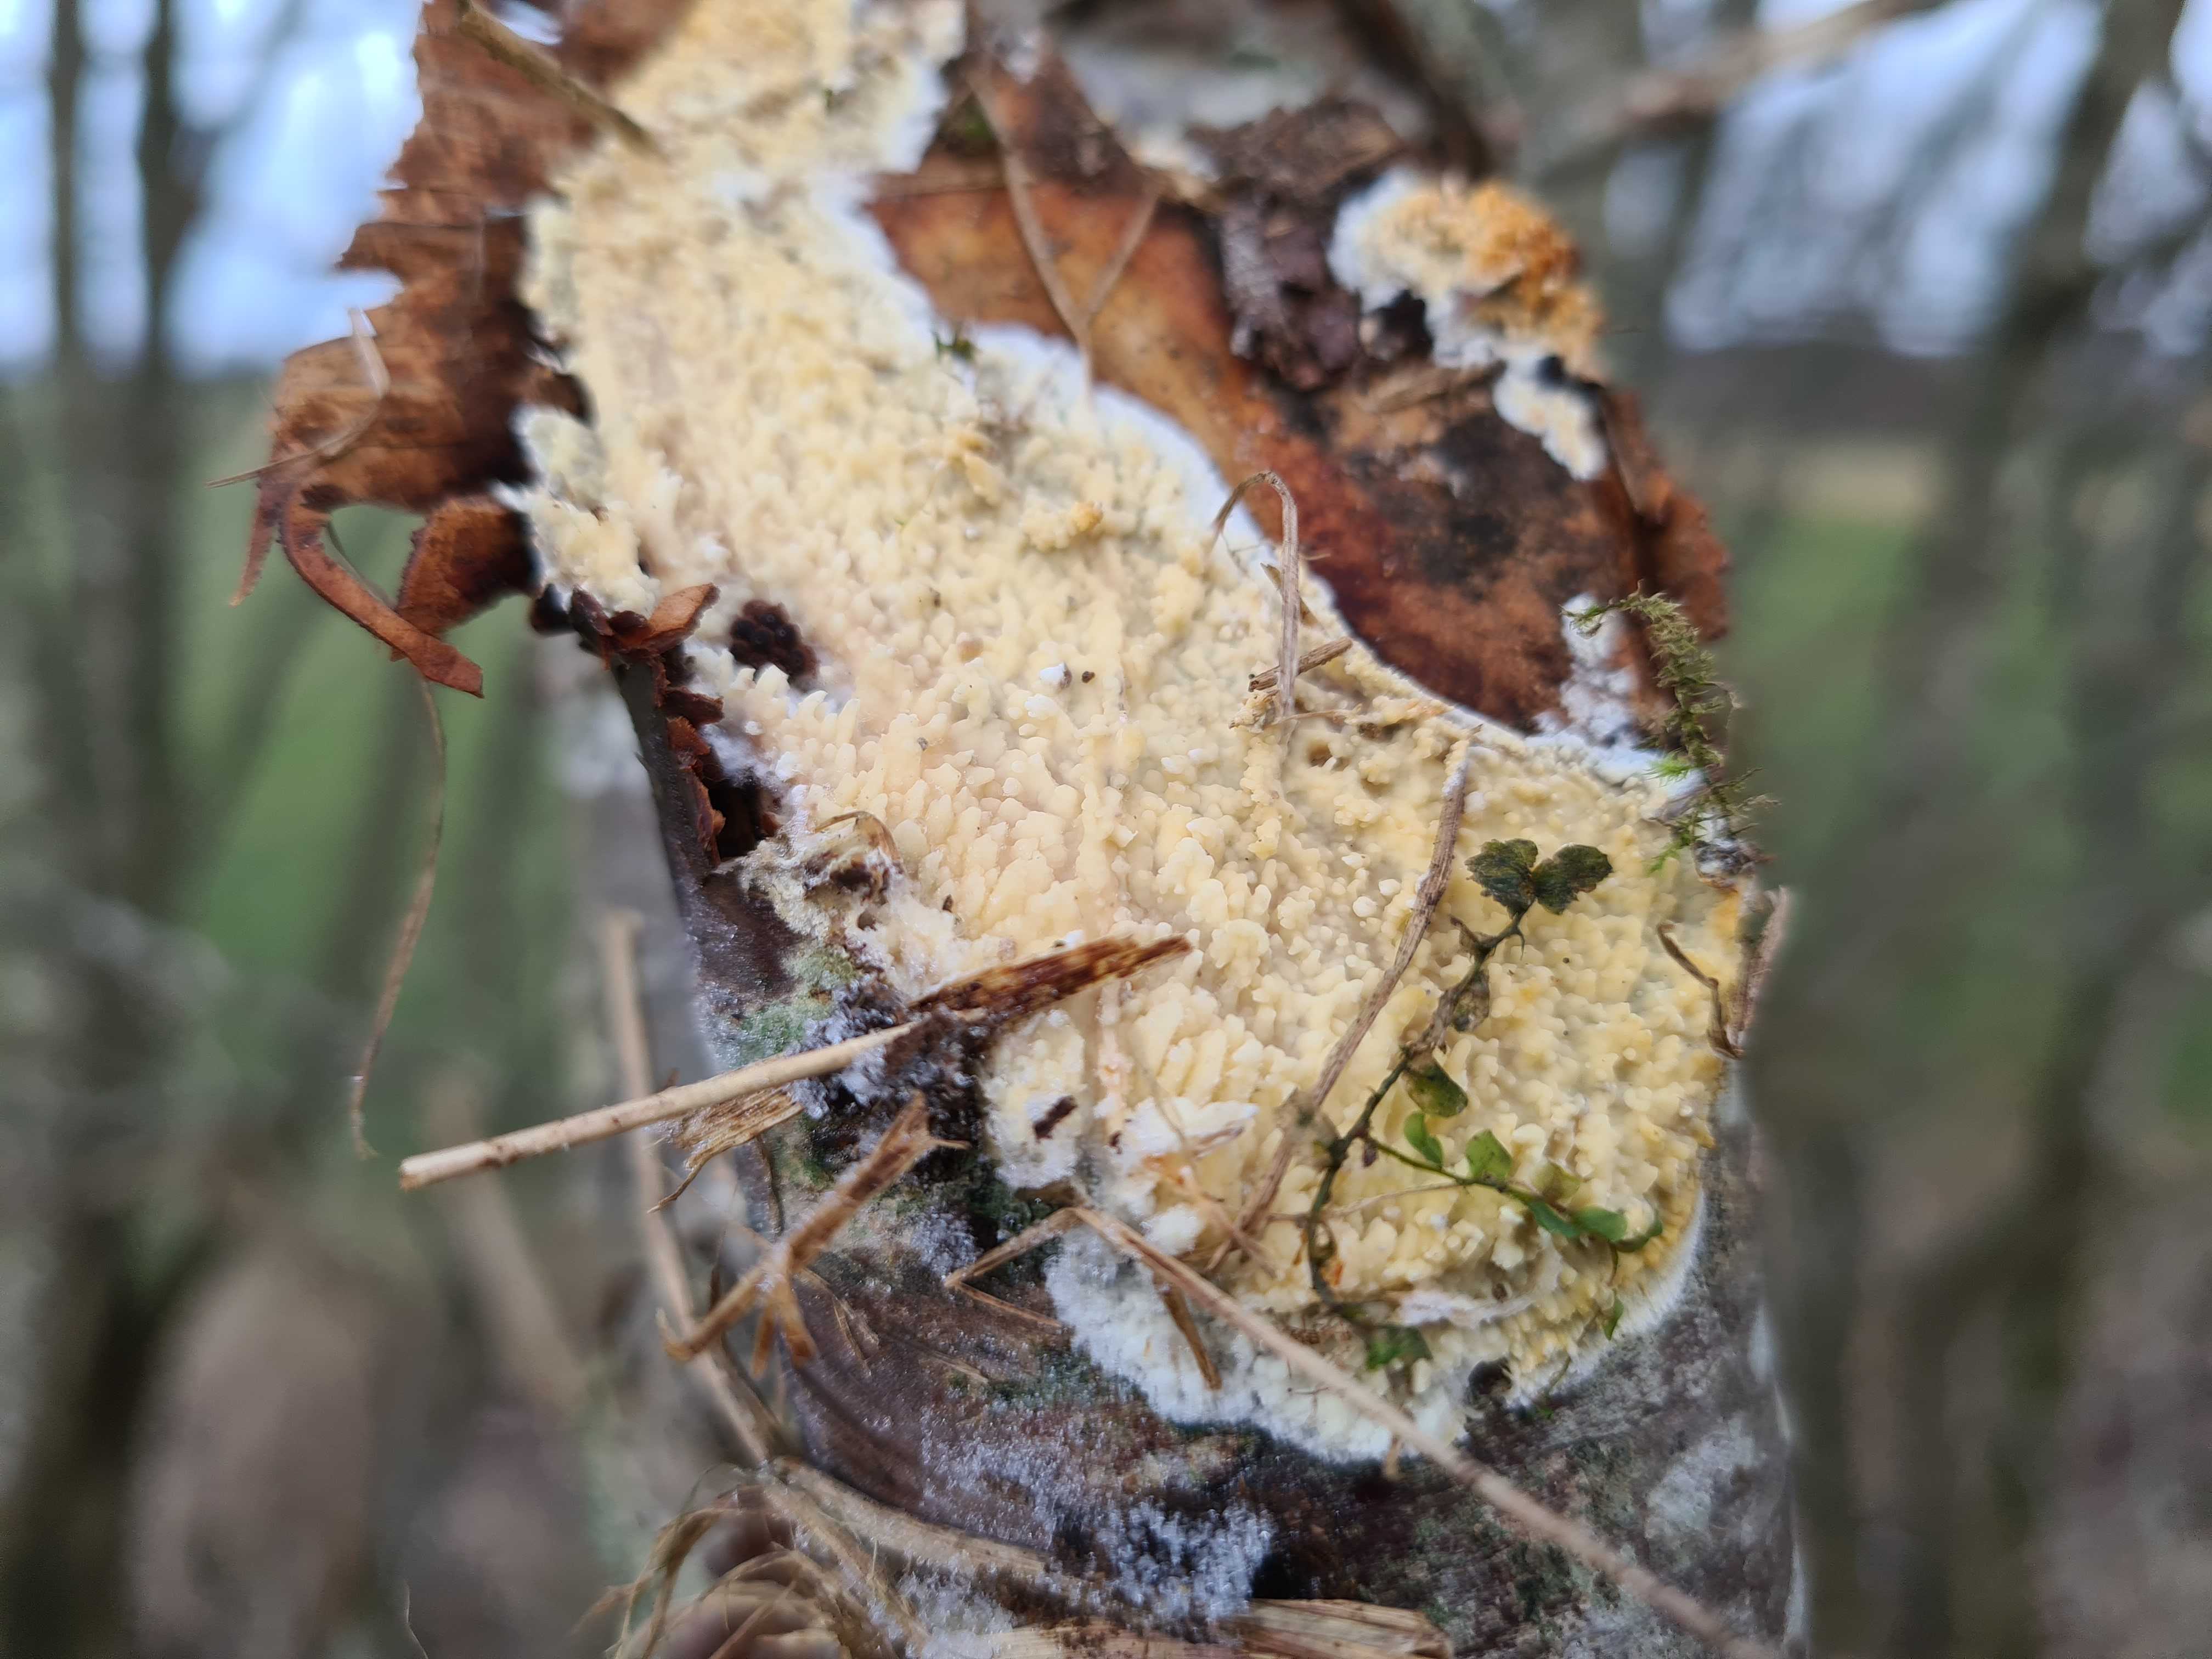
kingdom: Fungi
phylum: Basidiomycota
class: Agaricomycetes
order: Hymenochaetales
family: Schizoporaceae
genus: Xylodon
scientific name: Xylodon radula
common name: grovtandet kalkskind
